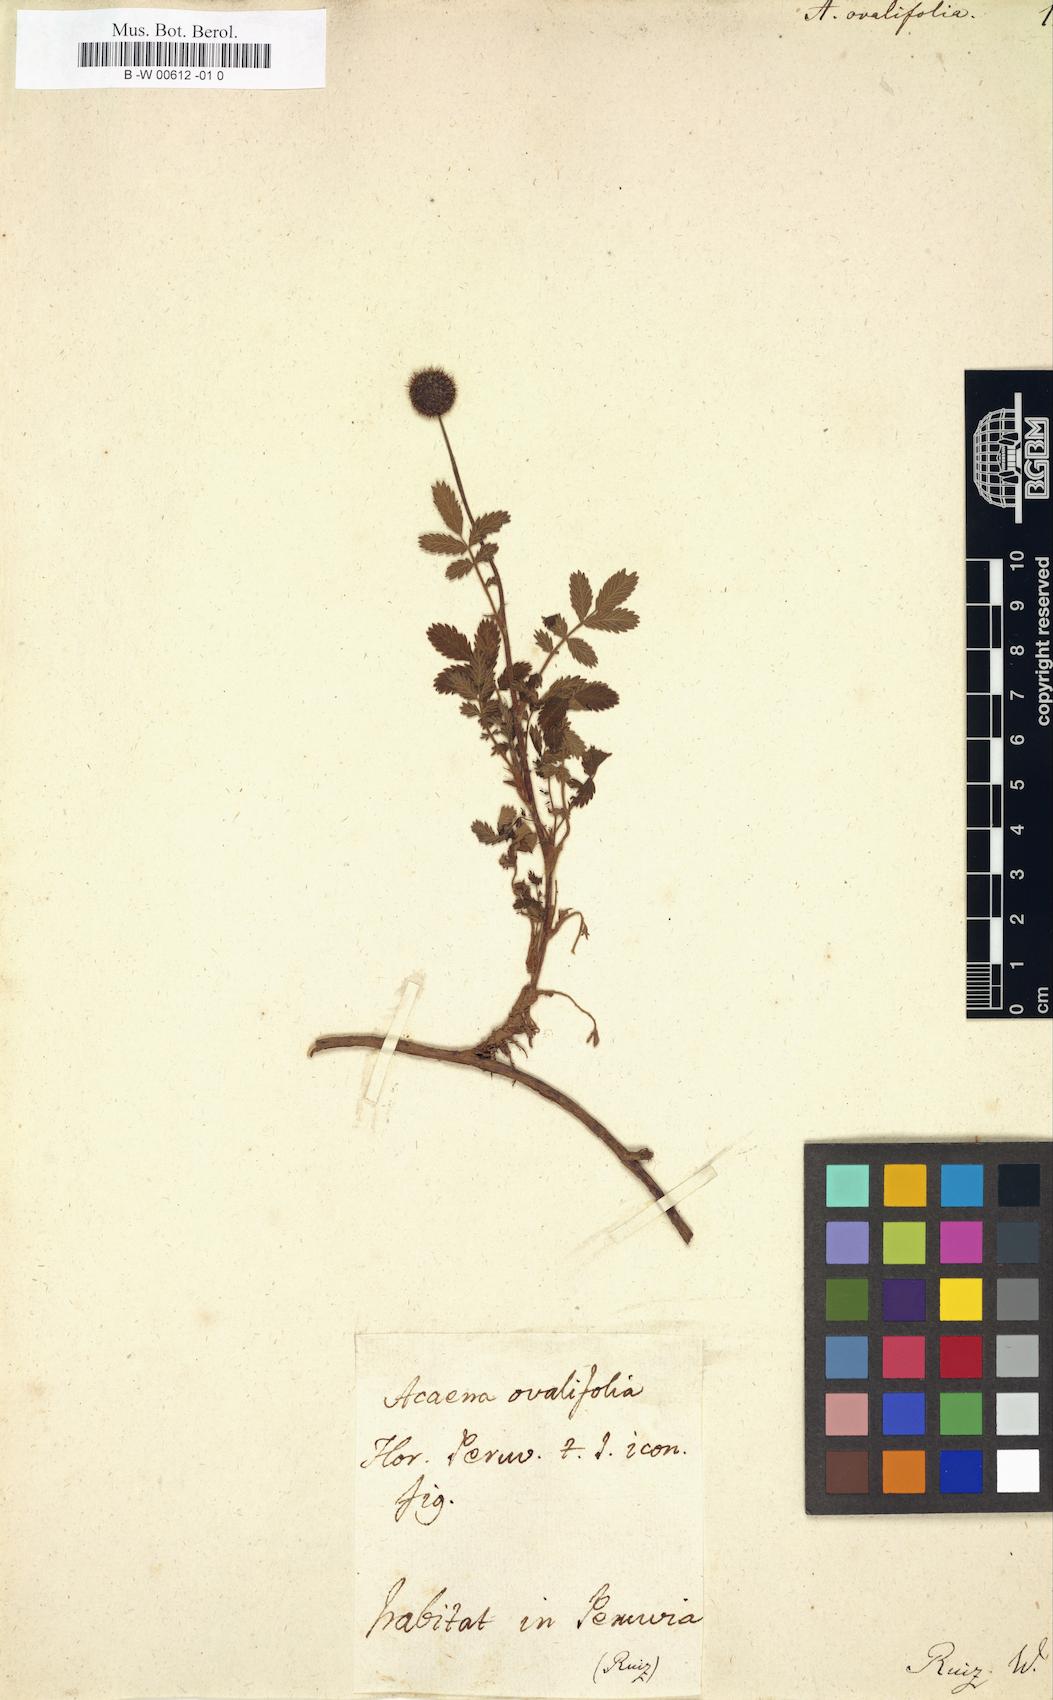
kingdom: Plantae
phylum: Tracheophyta
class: Magnoliopsida
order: Rosales
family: Rosaceae
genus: Acaena
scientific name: Acaena ovalifolia
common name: Two-spined acaena
